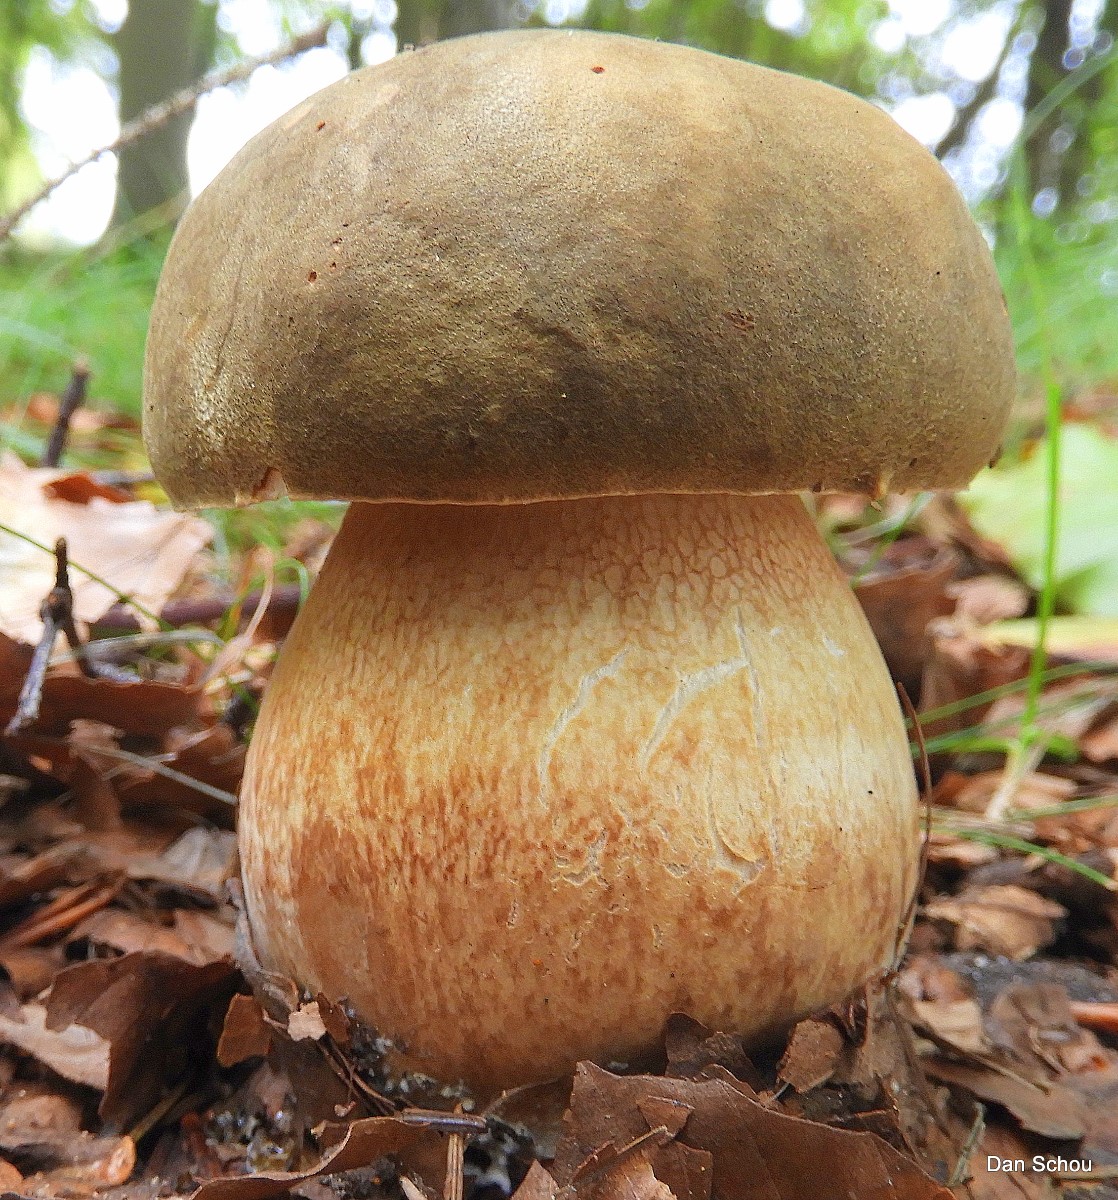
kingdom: Fungi
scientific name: Fungi
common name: bronze-rørhat
